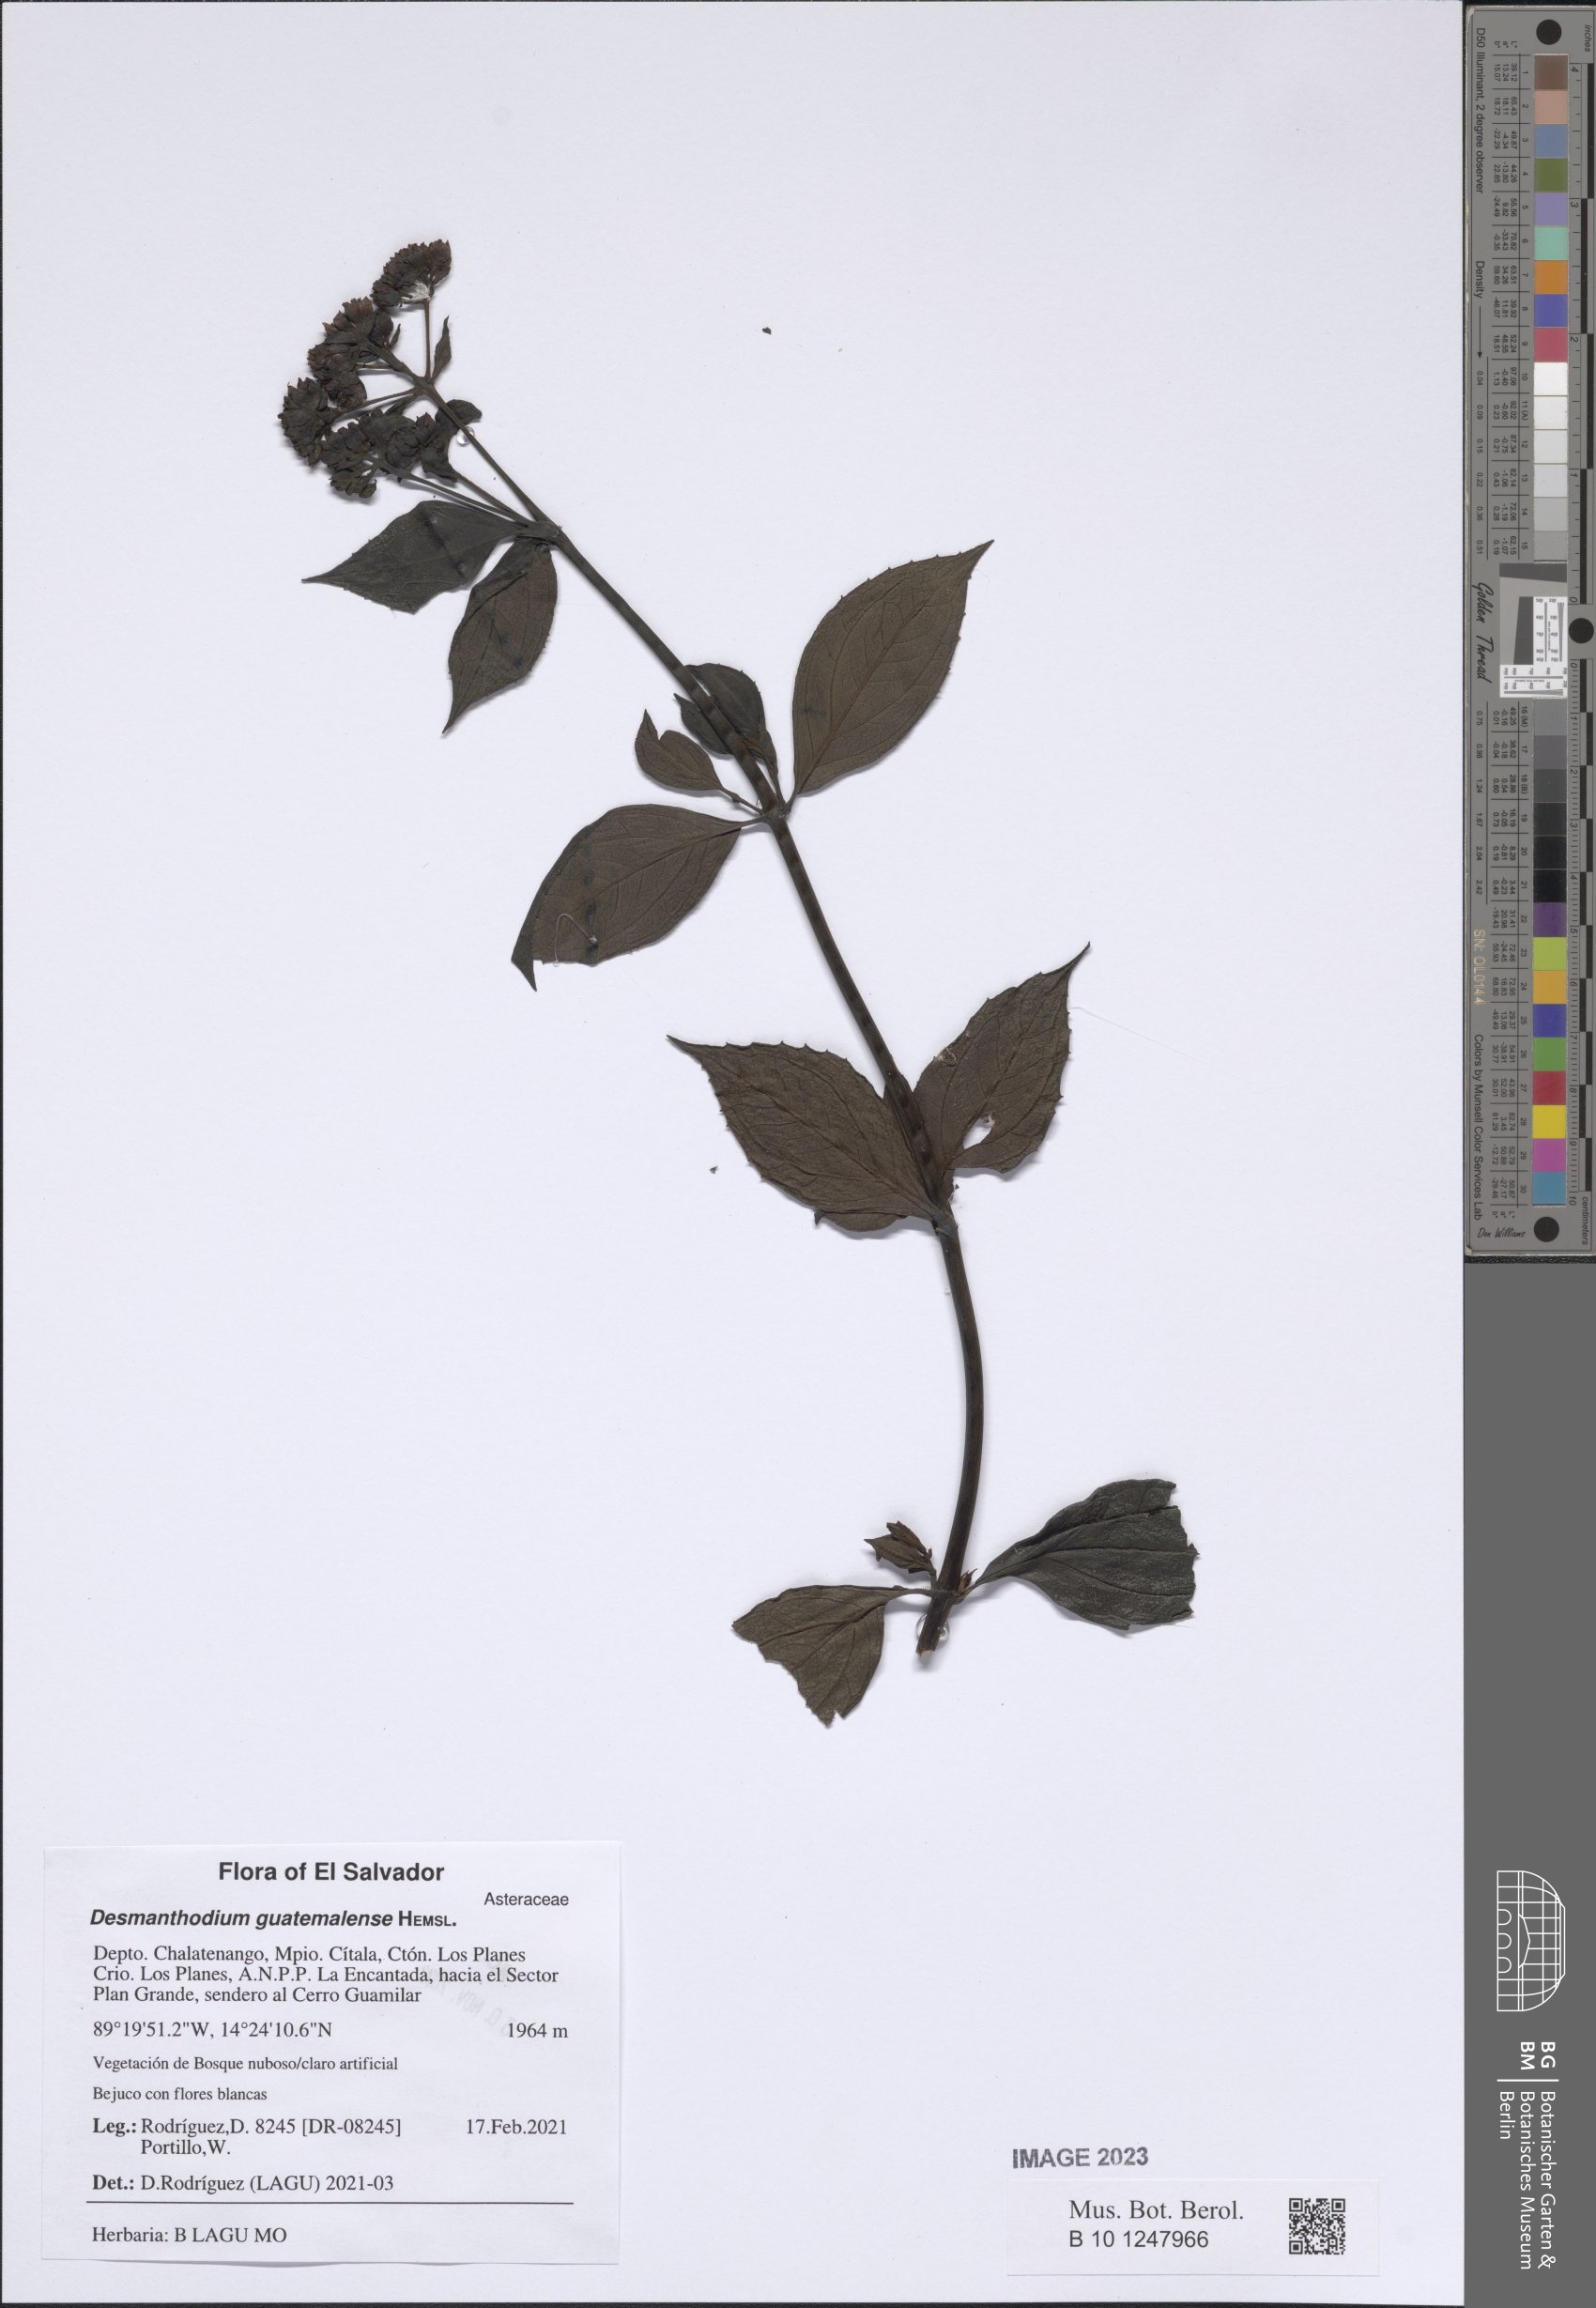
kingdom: Plantae
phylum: Tracheophyta
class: Magnoliopsida
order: Asterales
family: Asteraceae
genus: Desmanthodium
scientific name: Desmanthodium guatemalense
